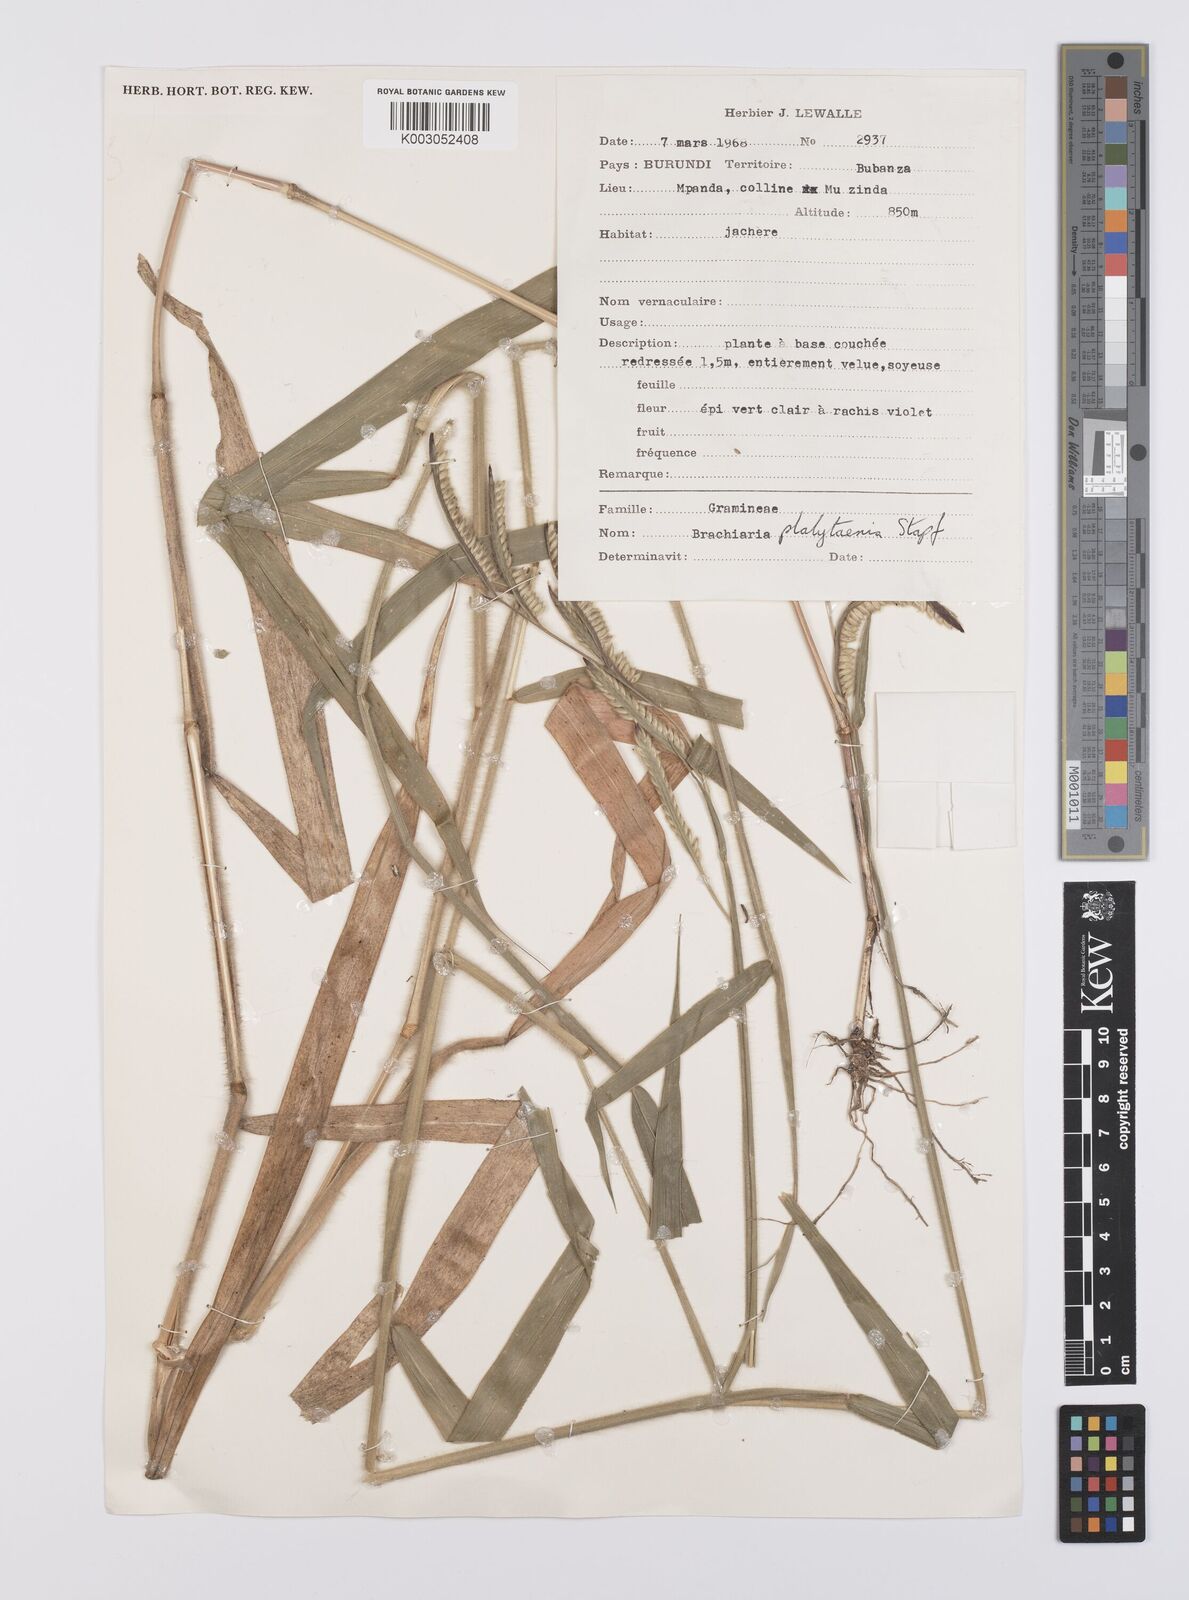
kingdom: Plantae
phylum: Tracheophyta
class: Liliopsida
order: Poales
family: Poaceae
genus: Urochloa
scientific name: Urochloa eminii
